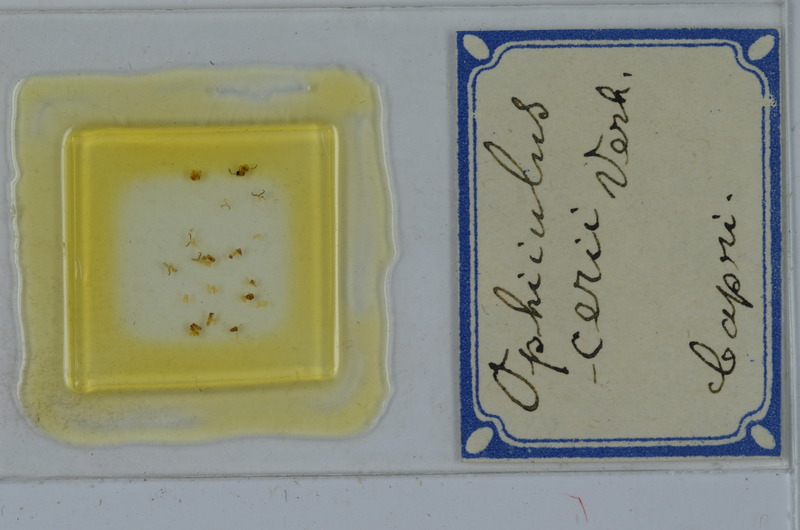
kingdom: Animalia
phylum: Arthropoda
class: Diplopoda
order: Julida
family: Julidae
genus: Ophyiulus
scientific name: Ophyiulus cerii
